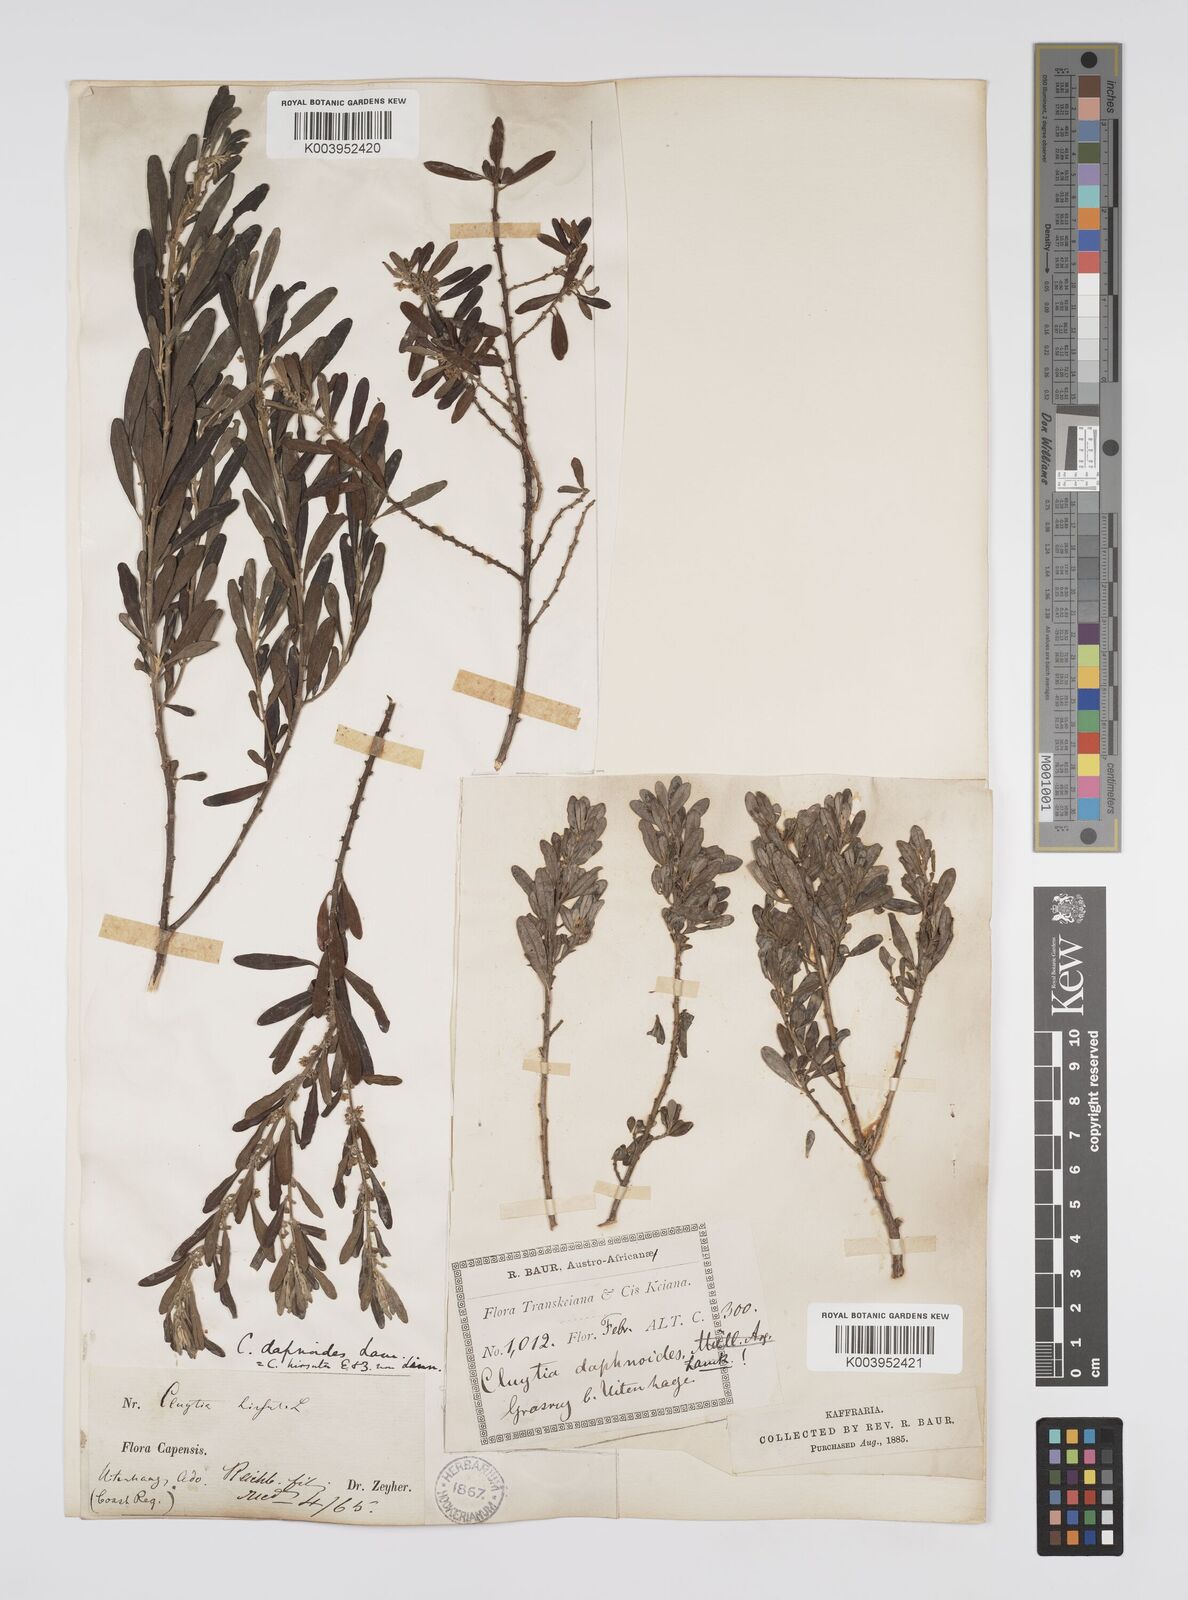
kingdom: Plantae
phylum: Tracheophyta
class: Magnoliopsida
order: Malpighiales
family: Peraceae
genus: Clutia
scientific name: Clutia daphnoides
